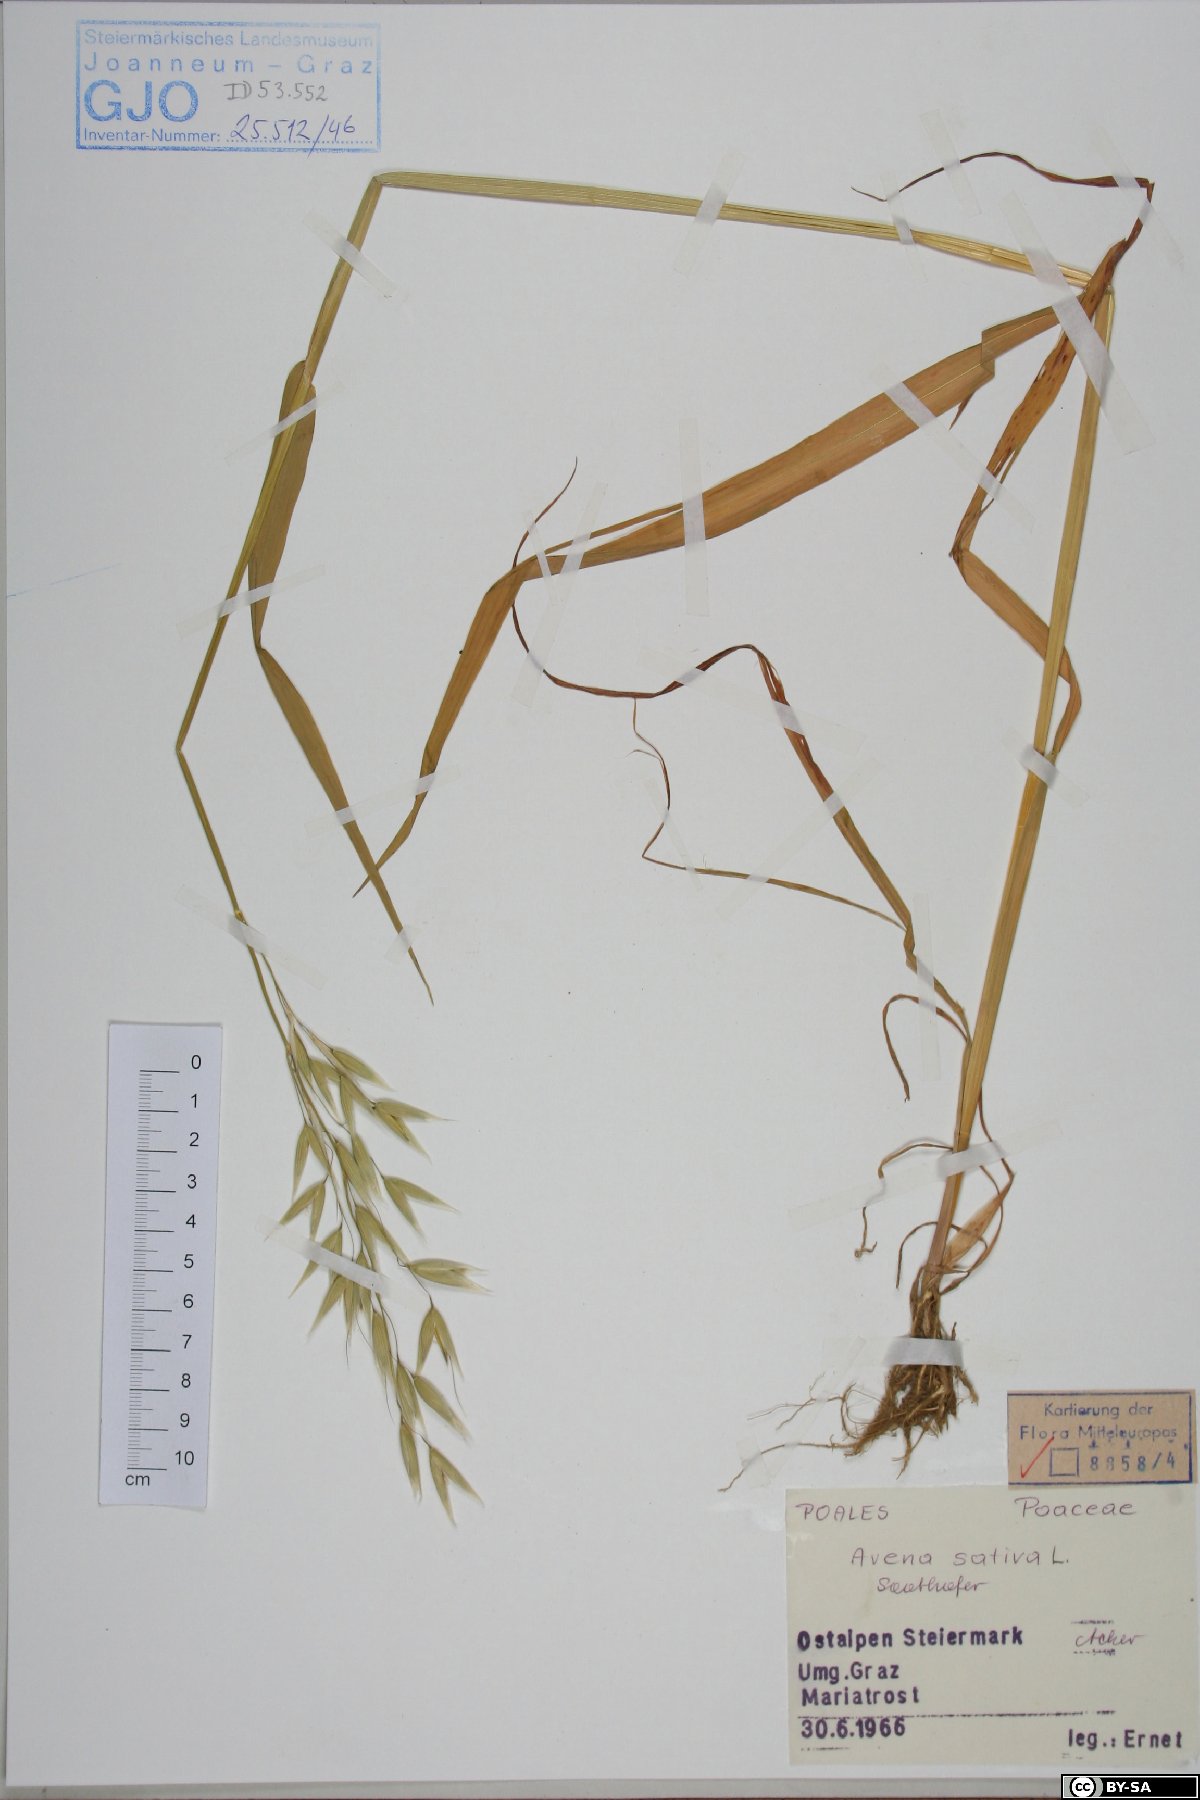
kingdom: Plantae
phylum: Tracheophyta
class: Liliopsida
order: Poales
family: Poaceae
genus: Avena
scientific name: Avena sativa
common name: Oat
